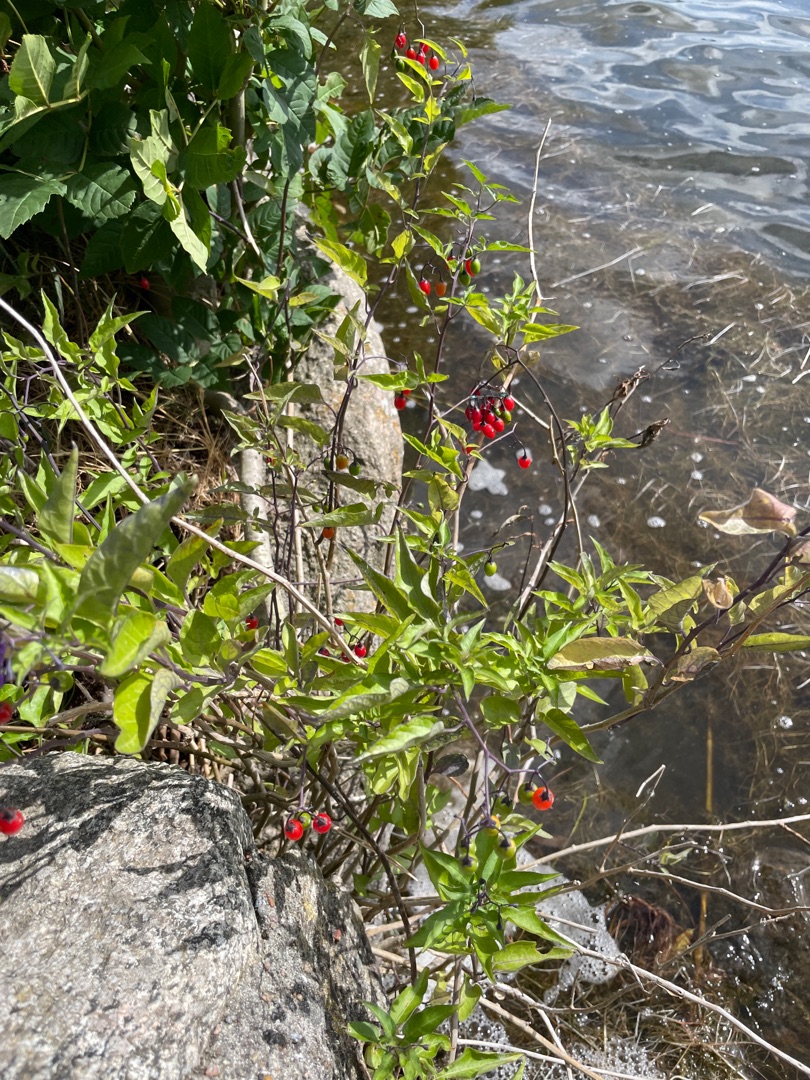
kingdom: Plantae
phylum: Tracheophyta
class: Magnoliopsida
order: Solanales
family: Solanaceae
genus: Solanum
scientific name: Solanum dulcamara
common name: Bittersød natskygge
